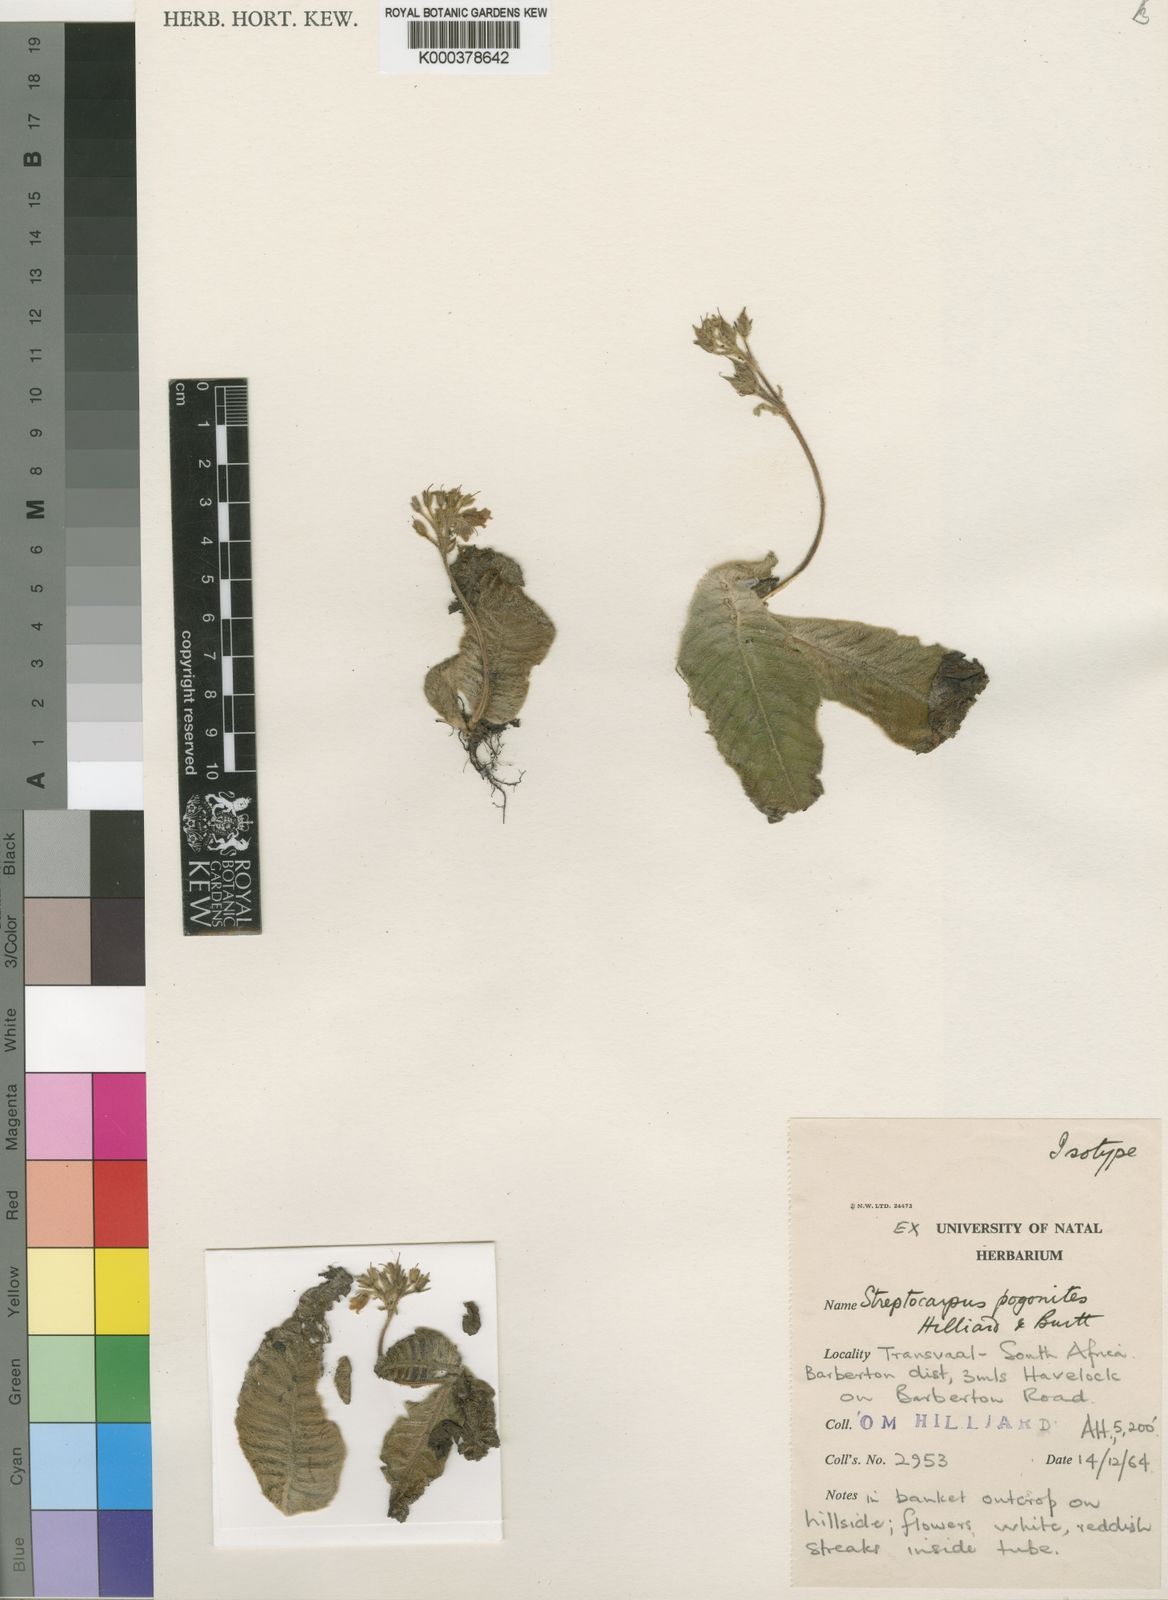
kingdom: Plantae
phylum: Tracheophyta
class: Magnoliopsida
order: Lamiales
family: Gesneriaceae
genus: Streptocarpus
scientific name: Streptocarpus pogonites
